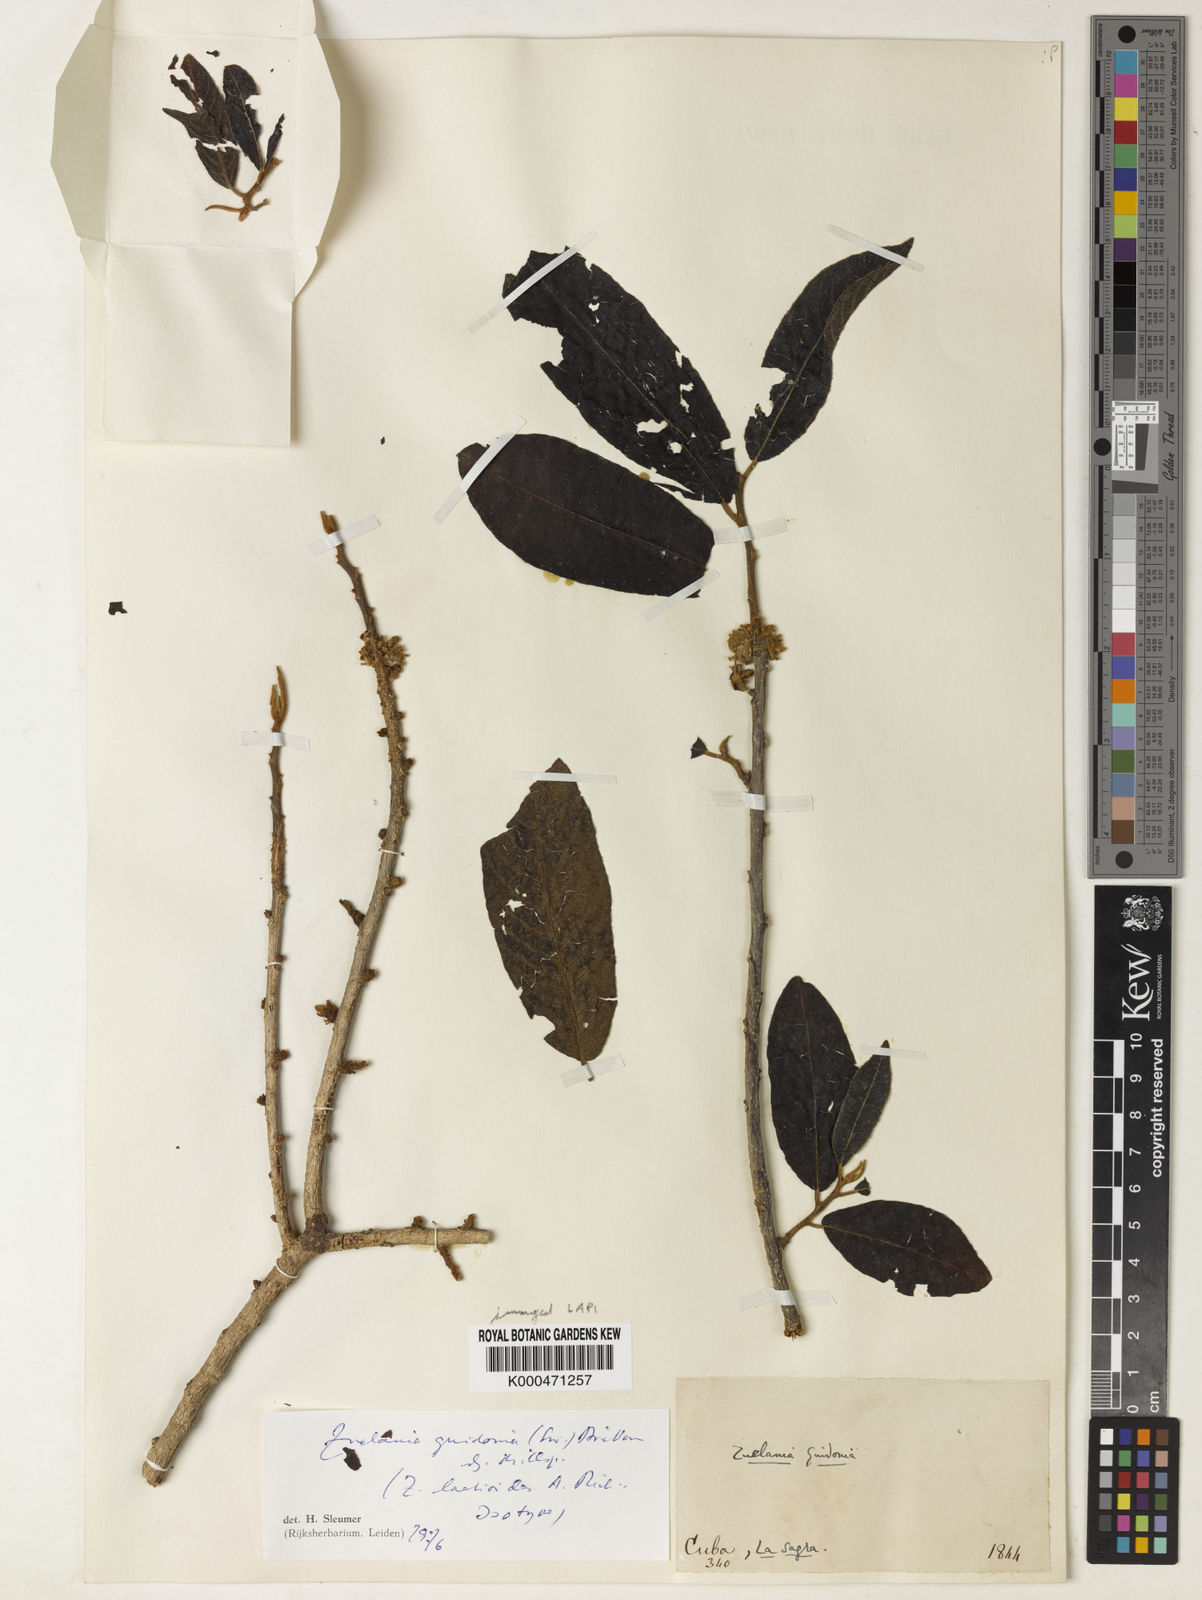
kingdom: Plantae
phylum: Tracheophyta
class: Magnoliopsida
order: Malpighiales
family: Salicaceae
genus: Casearia
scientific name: Casearia icosandra
